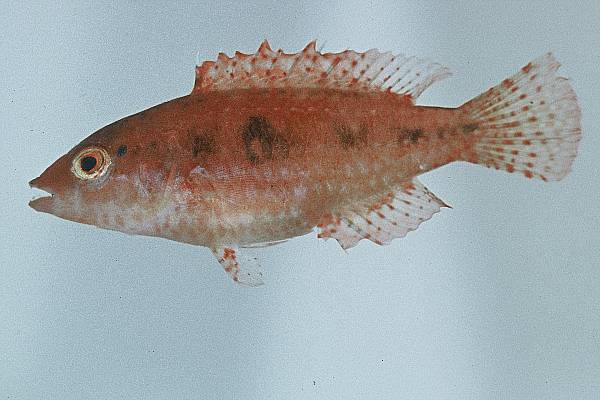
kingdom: Animalia
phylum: Chordata
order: Perciformes
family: Labridae
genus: Cheilinus
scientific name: Cheilinus
